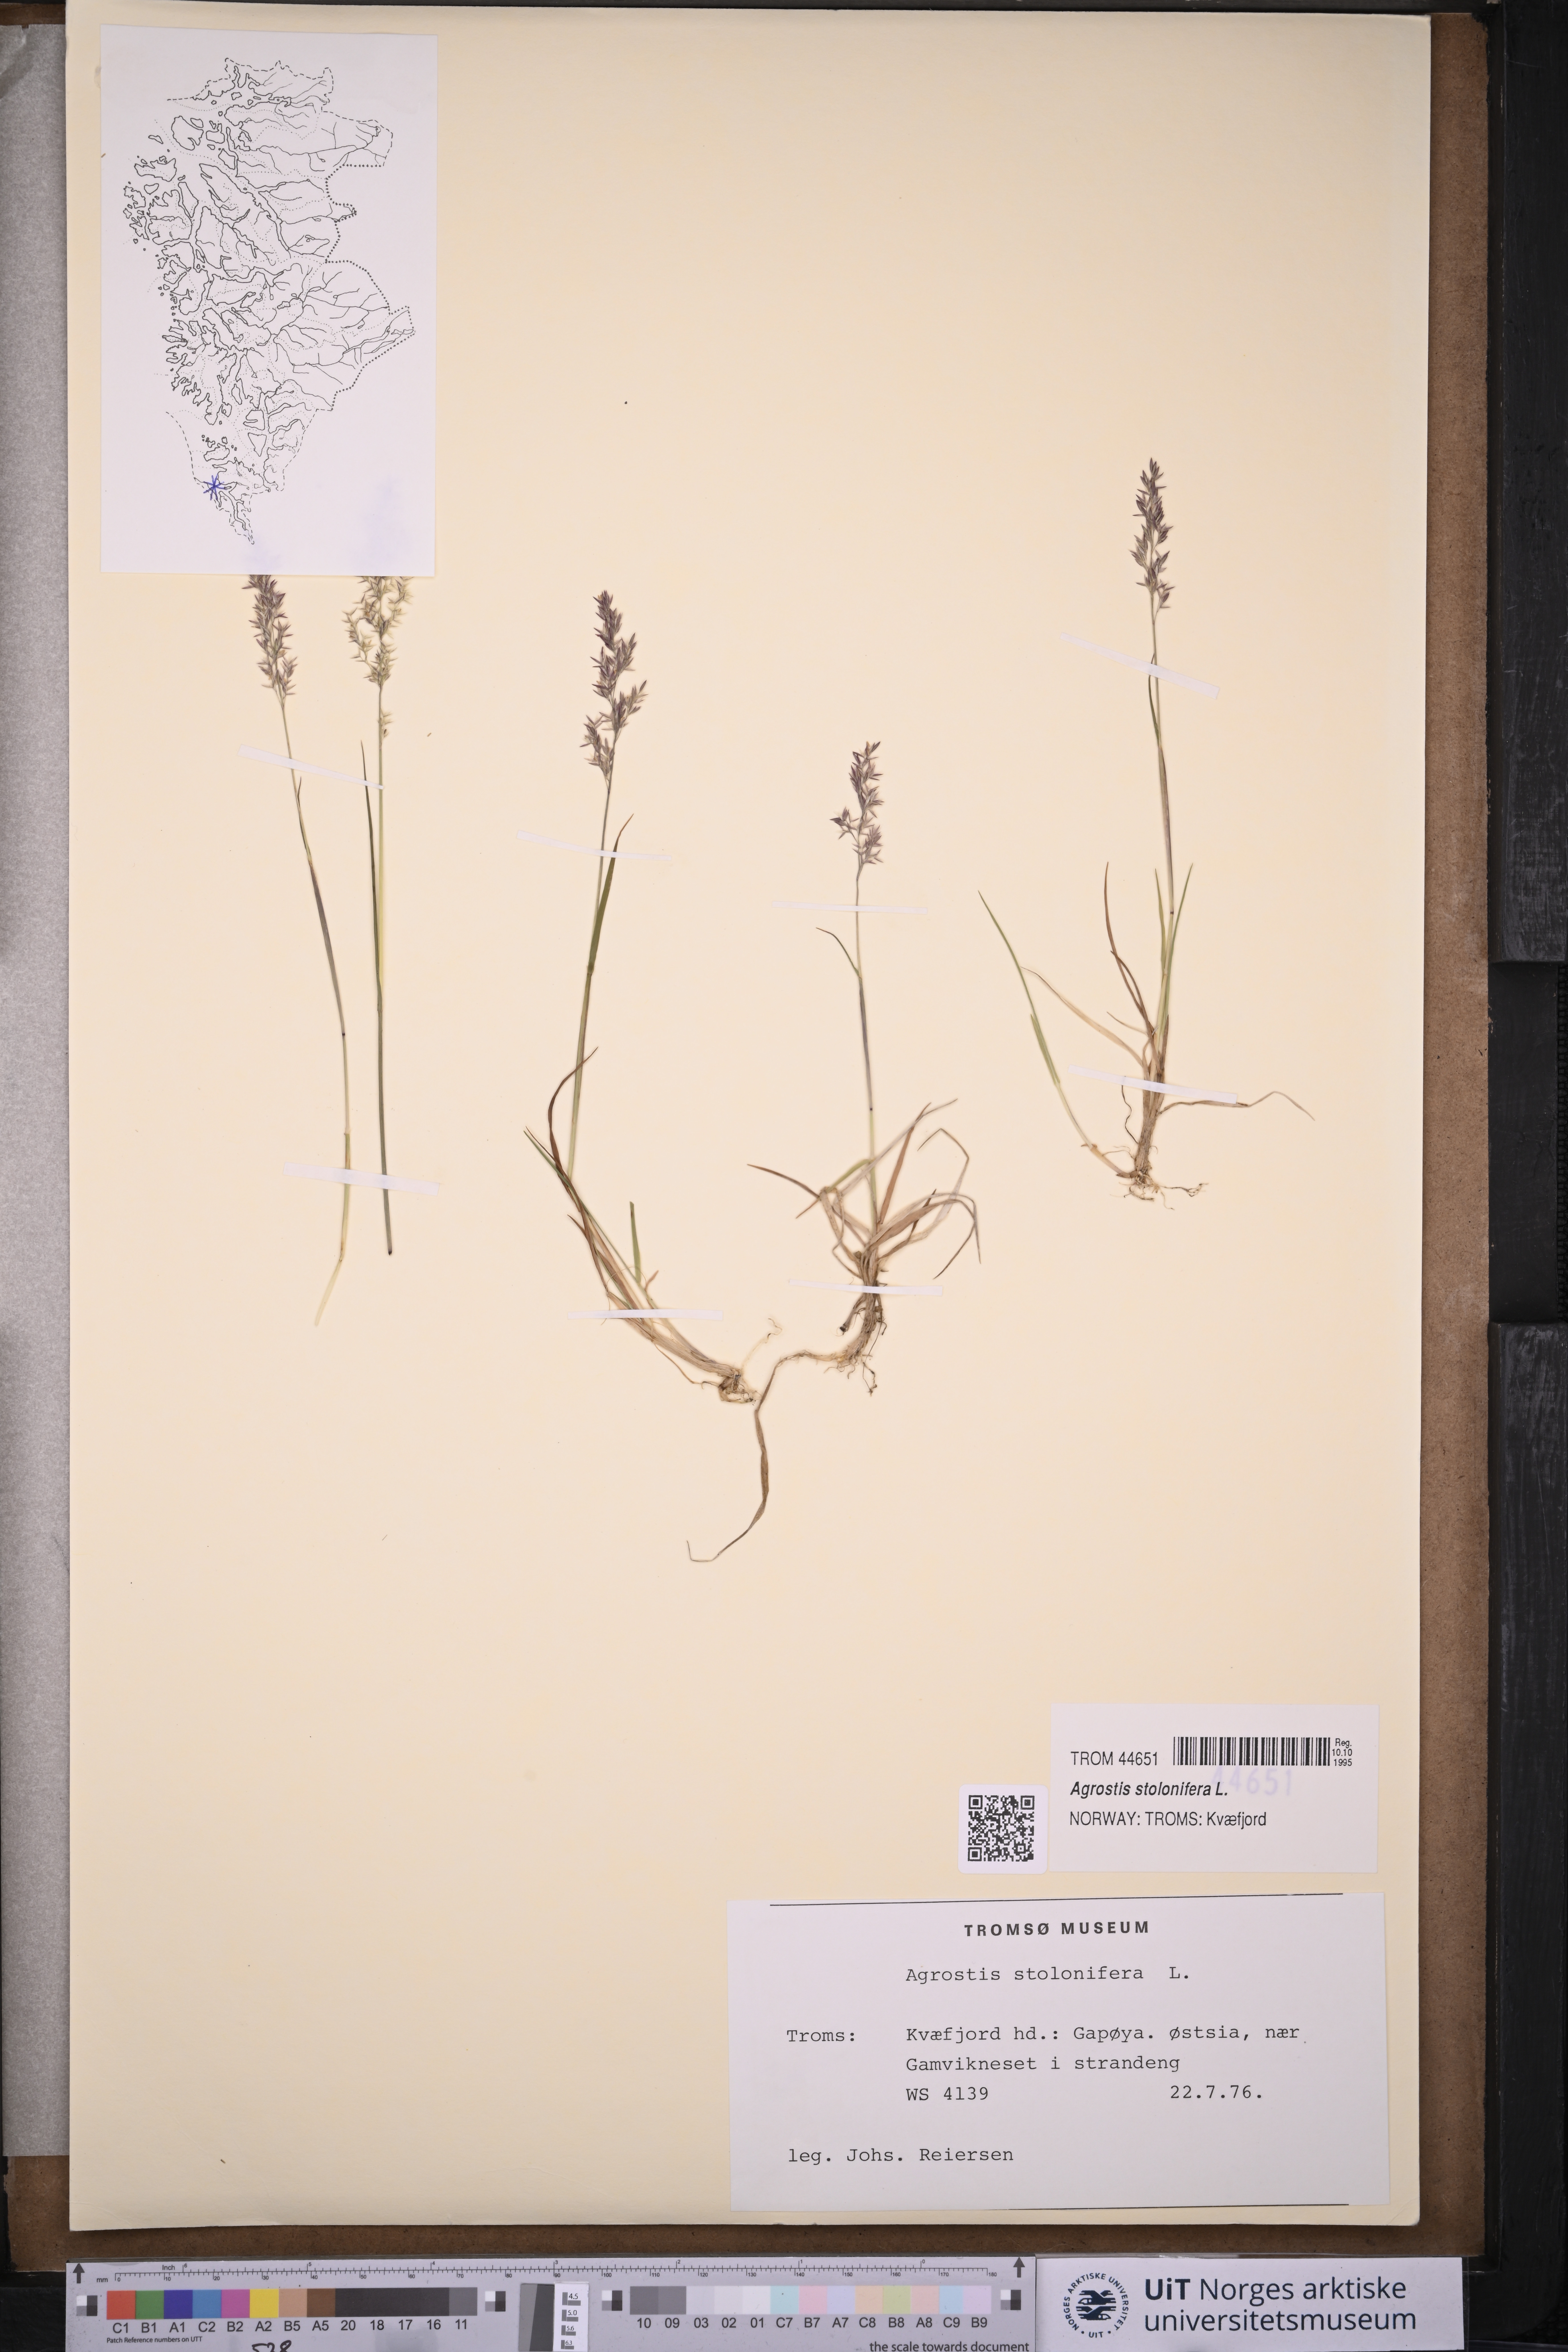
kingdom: Plantae
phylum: Tracheophyta
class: Liliopsida
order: Poales
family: Poaceae
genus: Agrostis
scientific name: Agrostis stolonifera
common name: Creeping bentgrass
